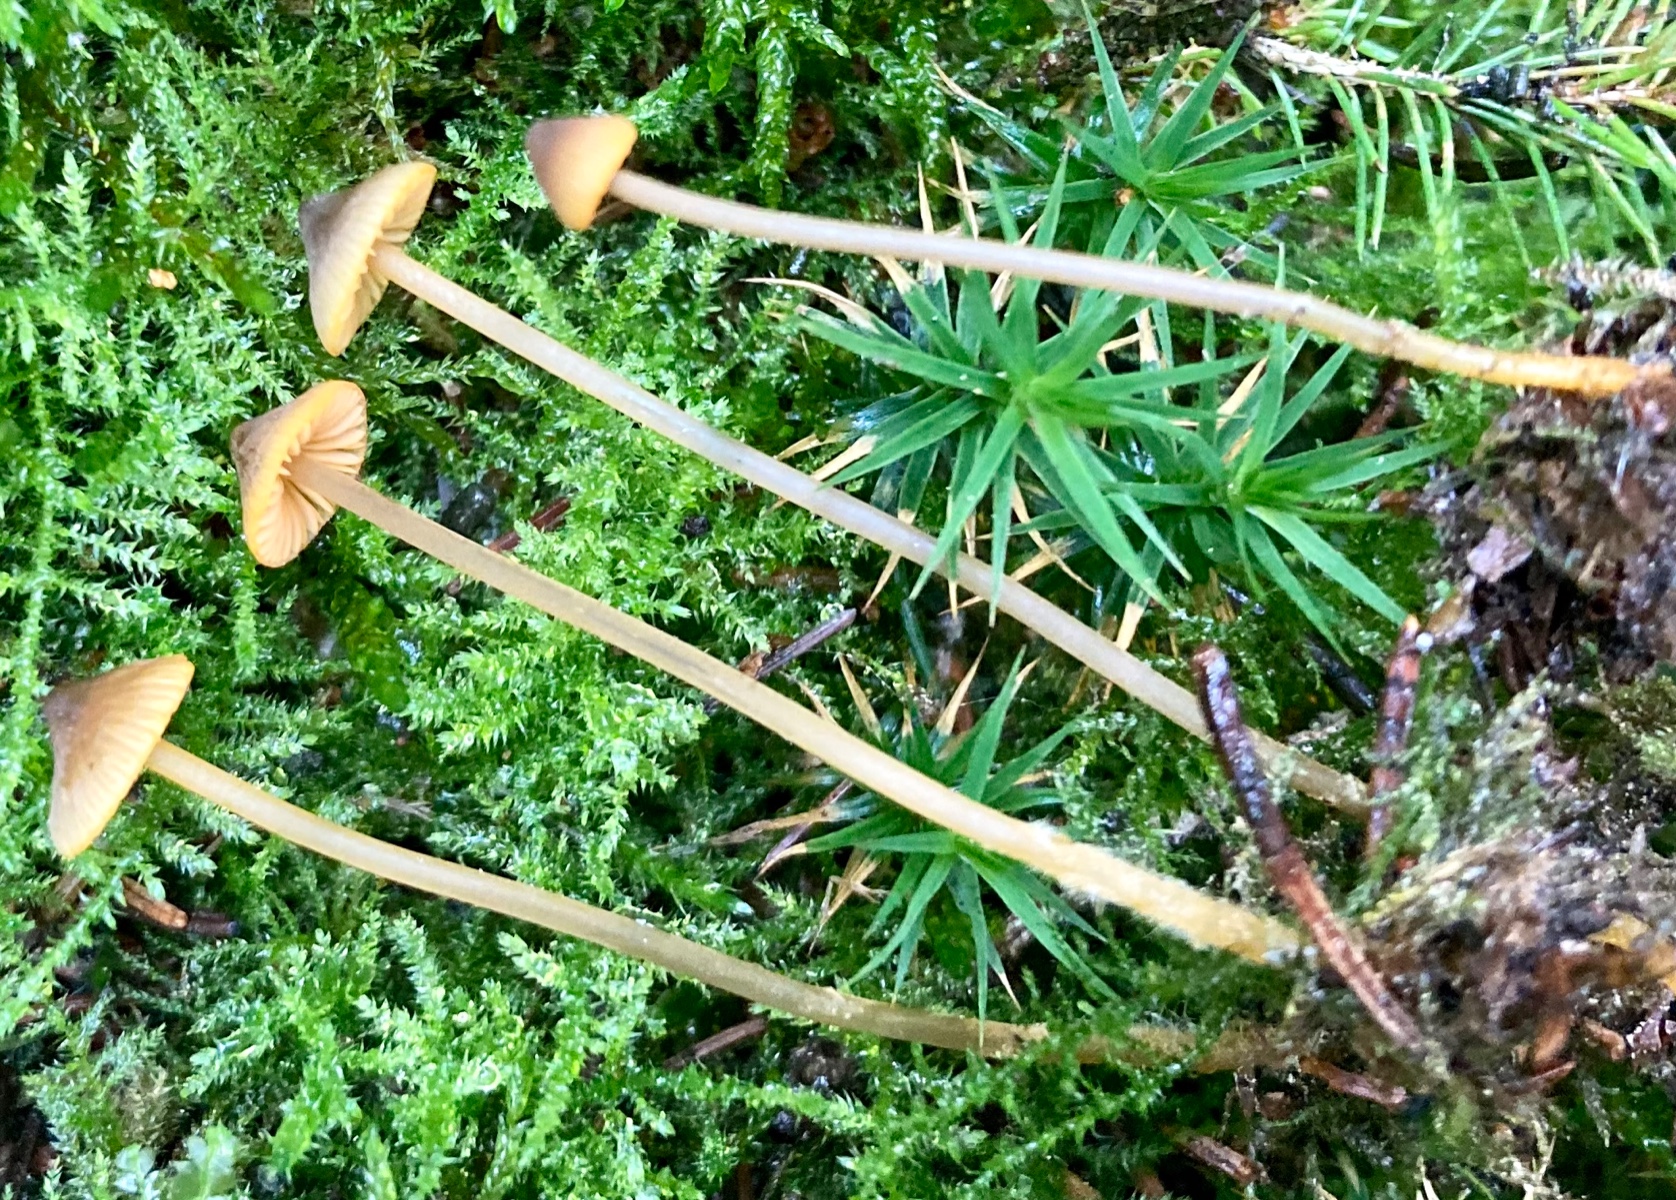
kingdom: Fungi
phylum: Basidiomycota
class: Agaricomycetes
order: Agaricales
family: Mycenaceae
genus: Mycena
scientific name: Mycena aurantiomarginata
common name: orangeægget huesvamp
